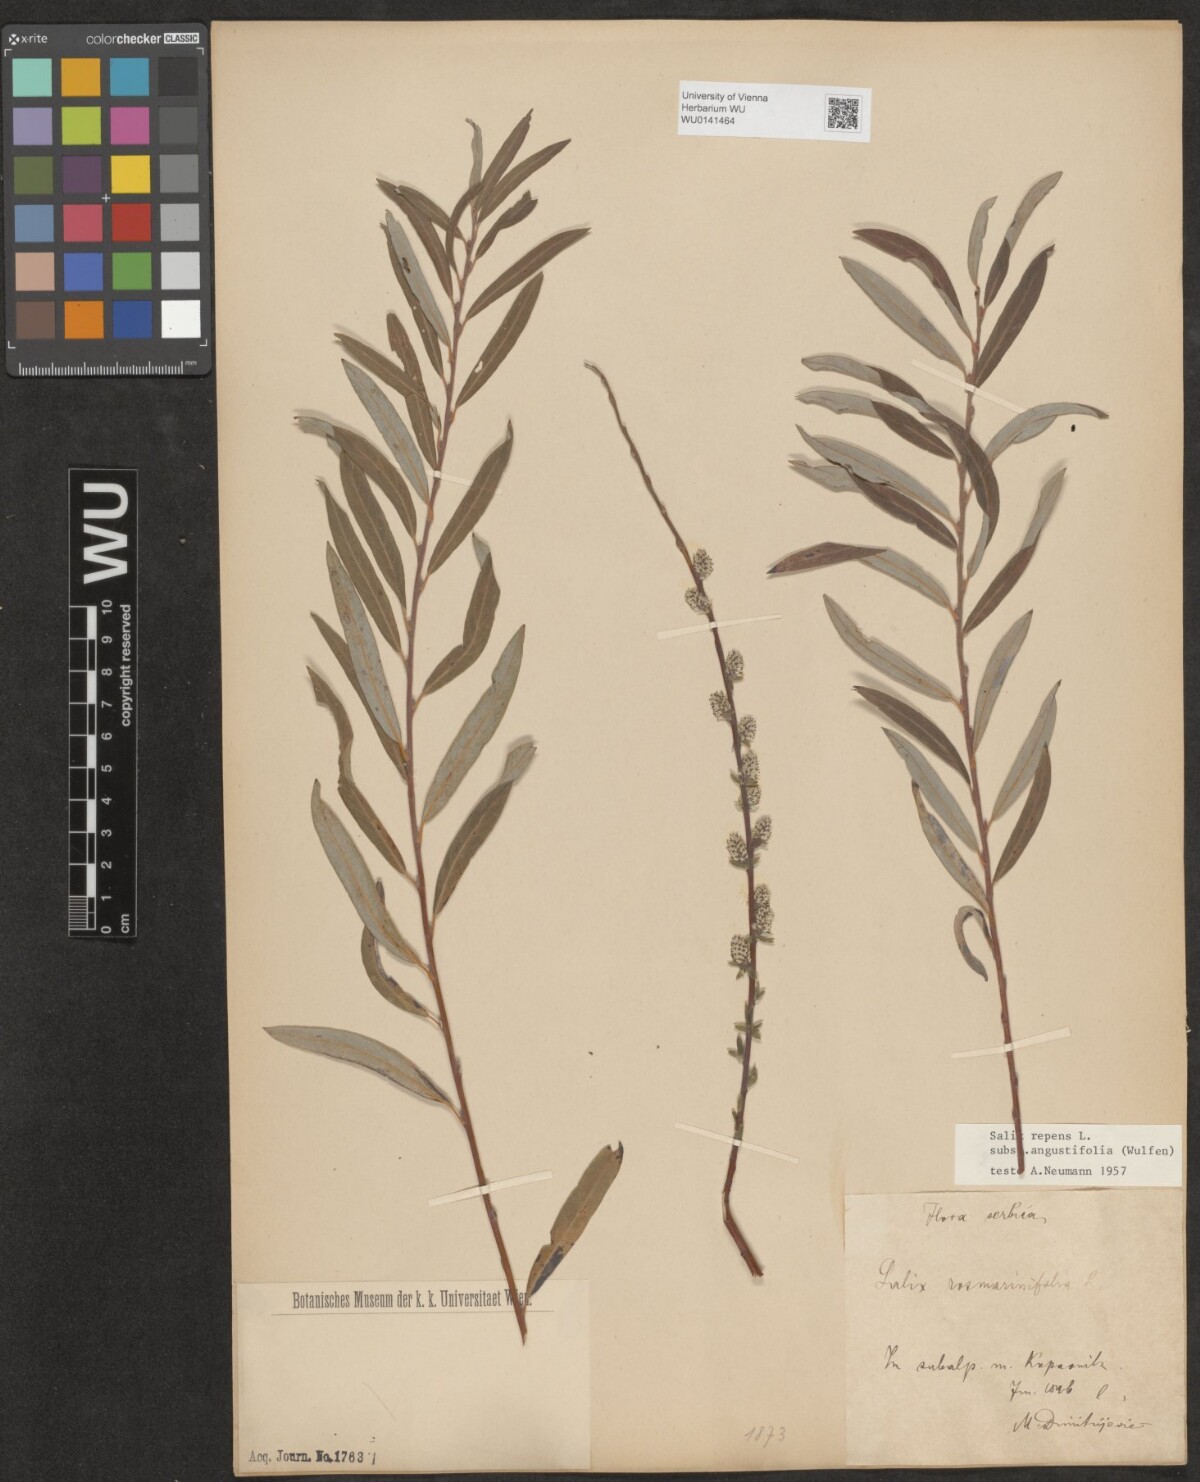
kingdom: Plantae
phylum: Tracheophyta
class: Magnoliopsida
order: Malpighiales
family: Salicaceae
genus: Salix
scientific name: Salix rosmarinifolia
